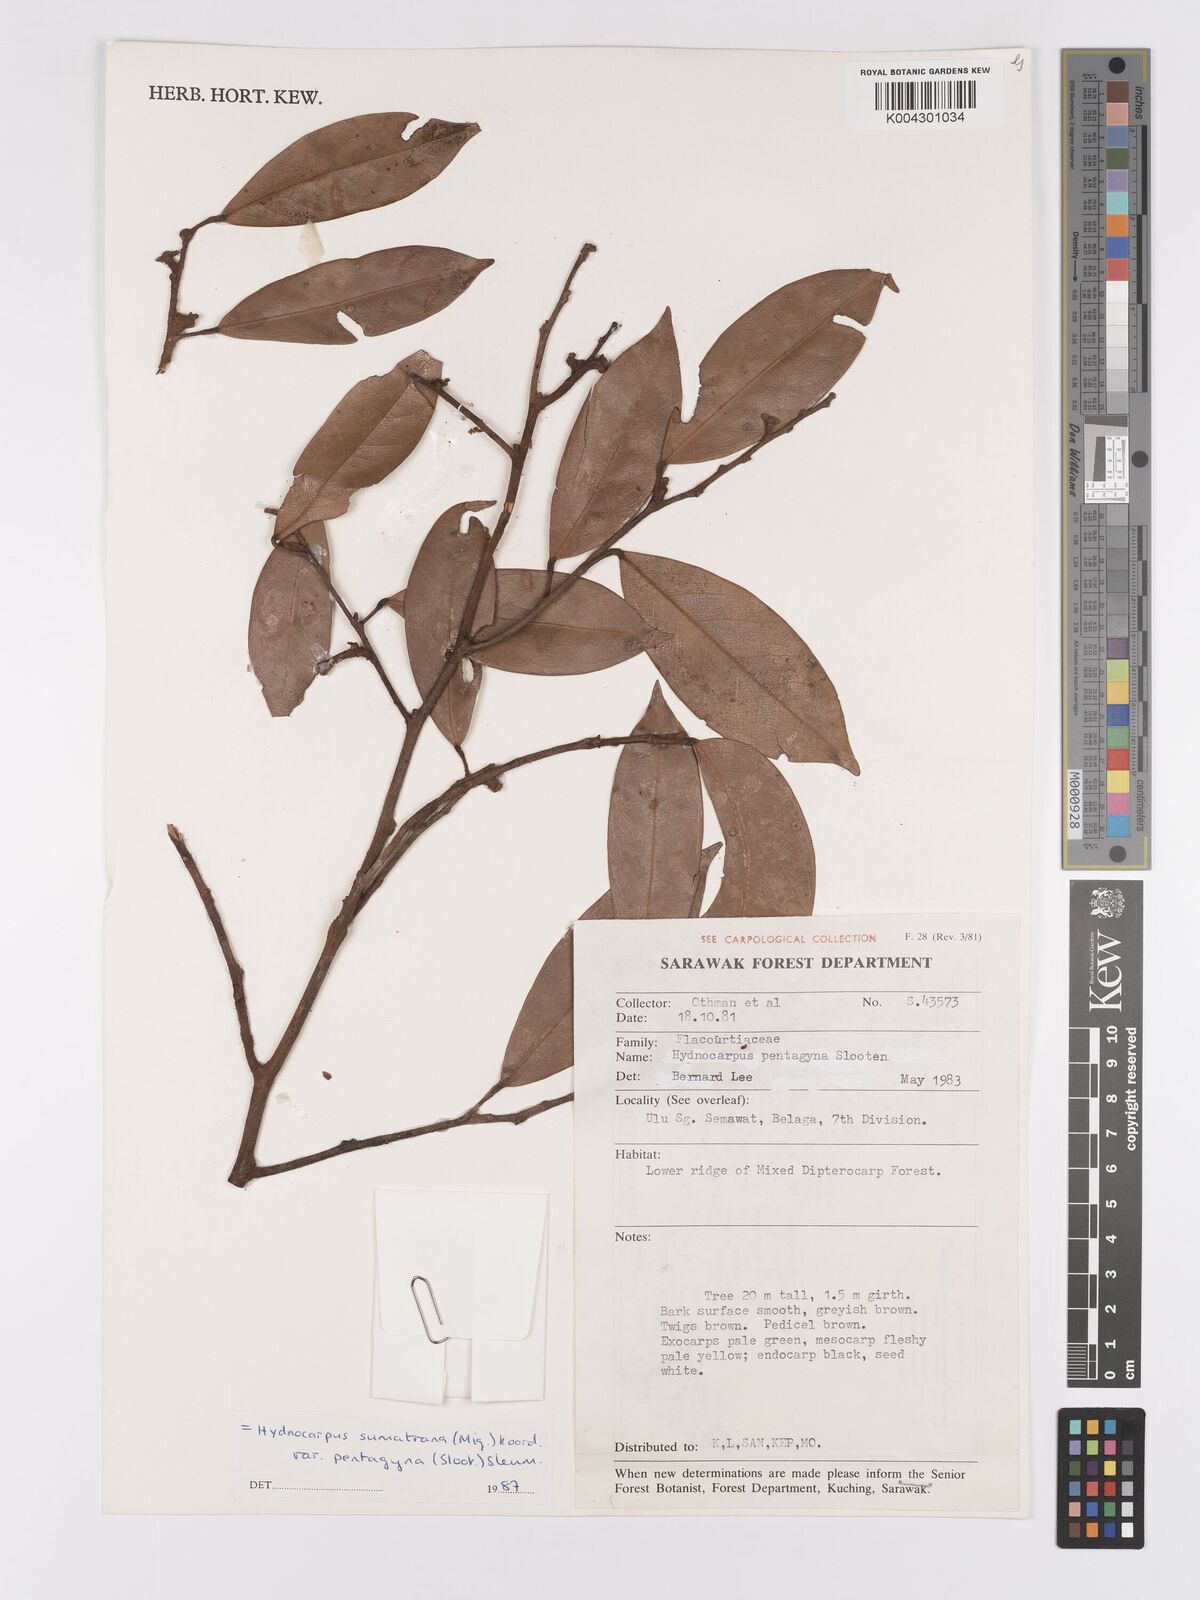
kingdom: Plantae
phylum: Tracheophyta
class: Magnoliopsida
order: Malpighiales
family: Achariaceae
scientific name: Achariaceae
